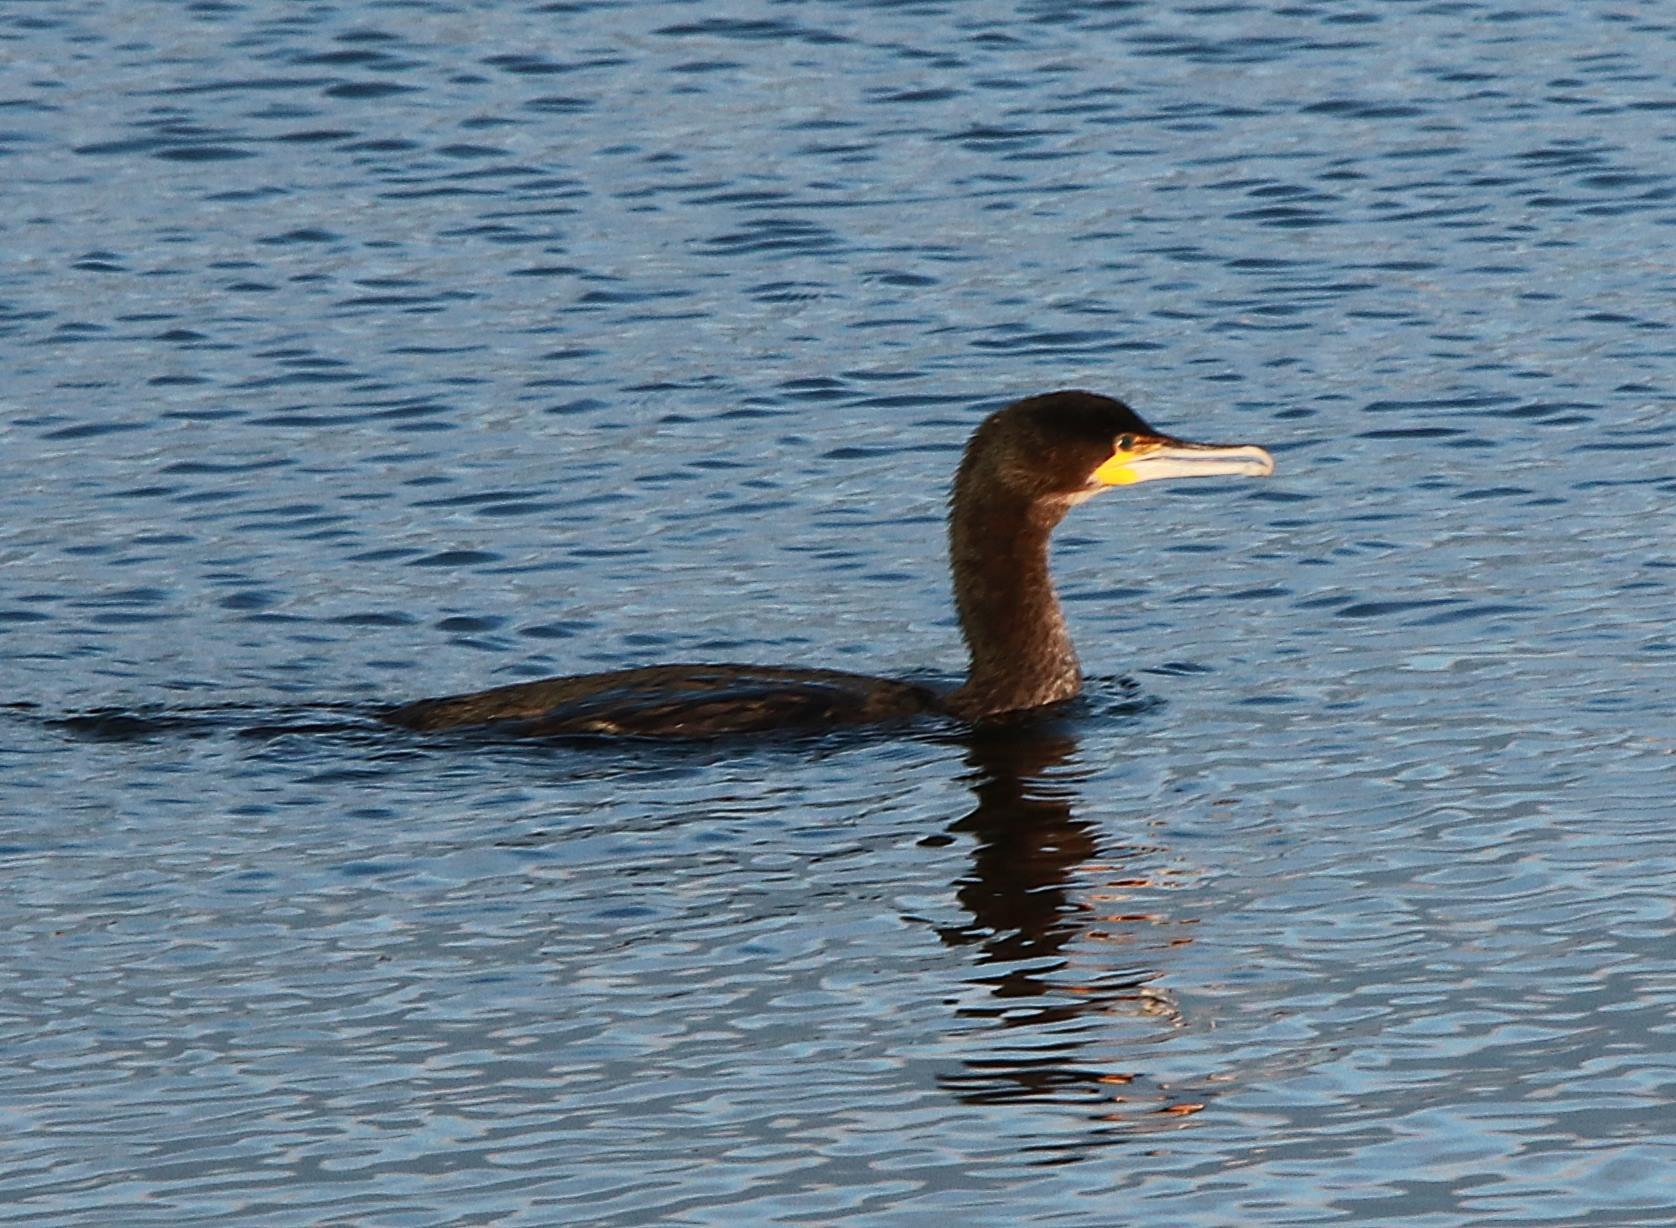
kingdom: Animalia
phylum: Chordata
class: Aves
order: Suliformes
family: Phalacrocoracidae
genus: Phalacrocorax
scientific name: Phalacrocorax carbo
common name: Skarv
